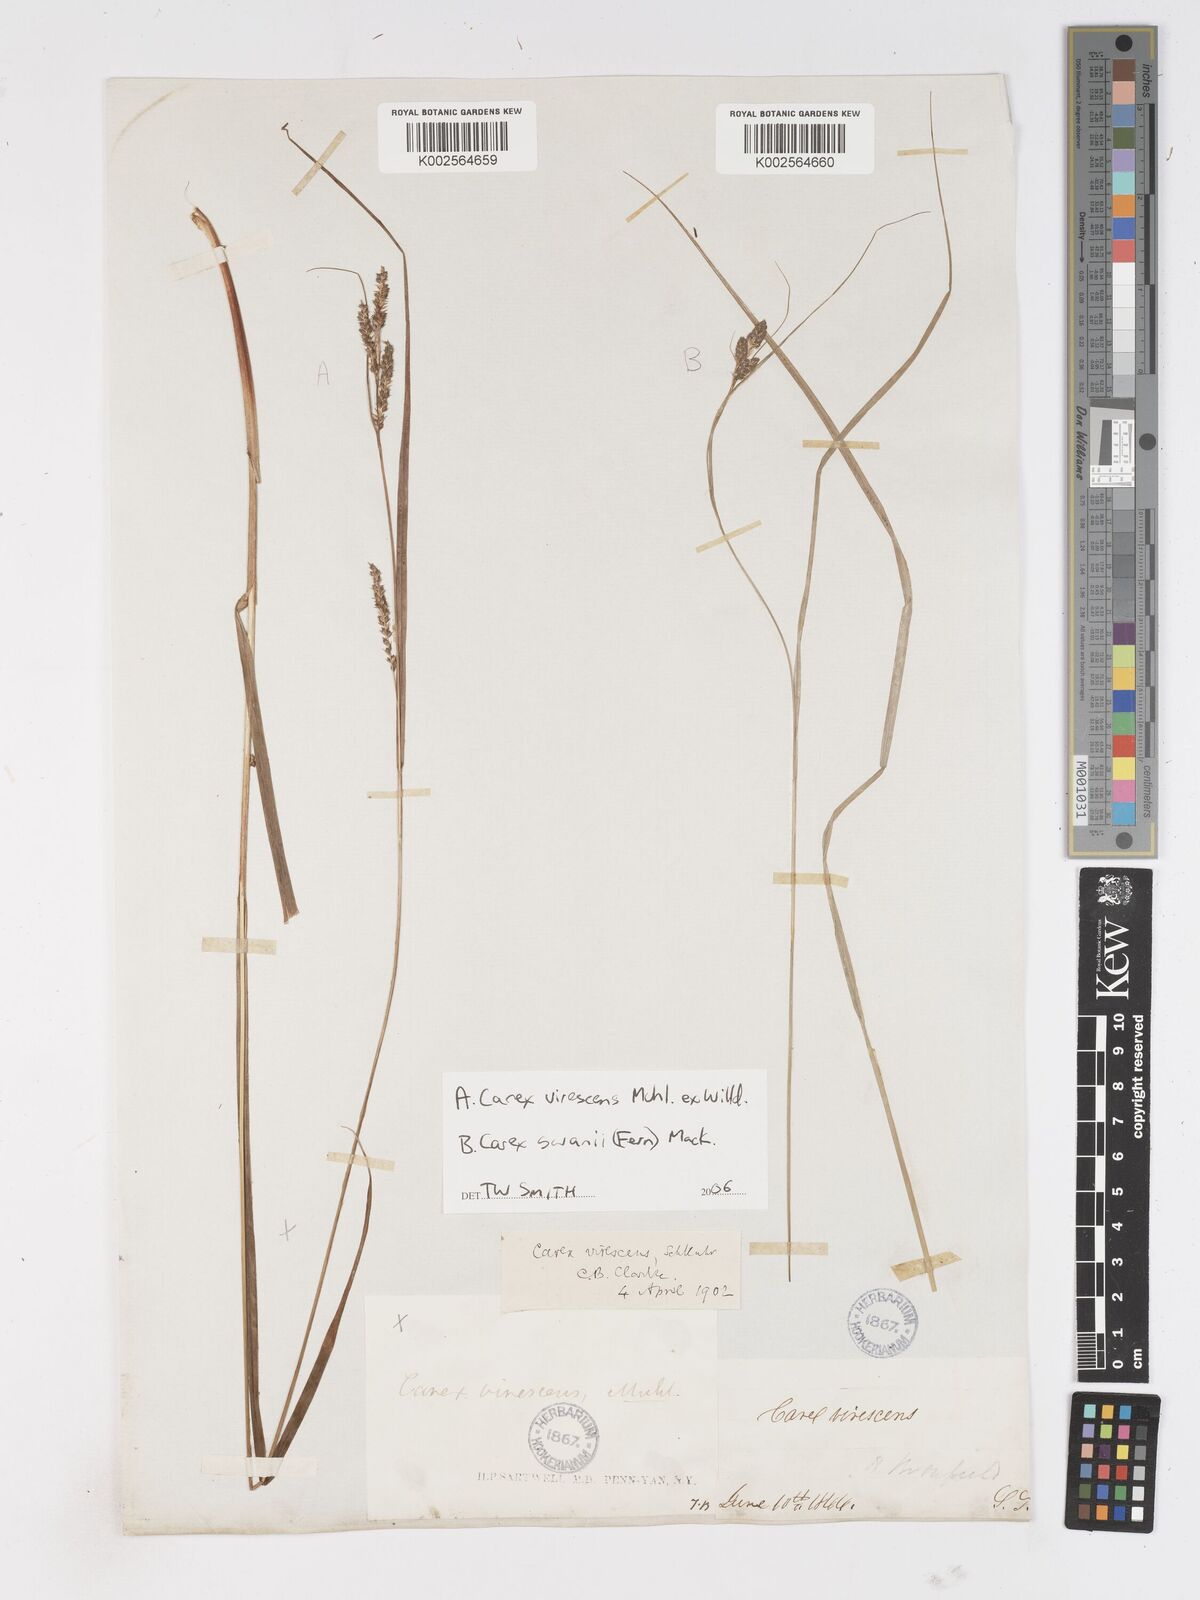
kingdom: Plantae
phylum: Tracheophyta
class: Liliopsida
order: Poales
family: Cyperaceae
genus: Carex
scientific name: Carex
